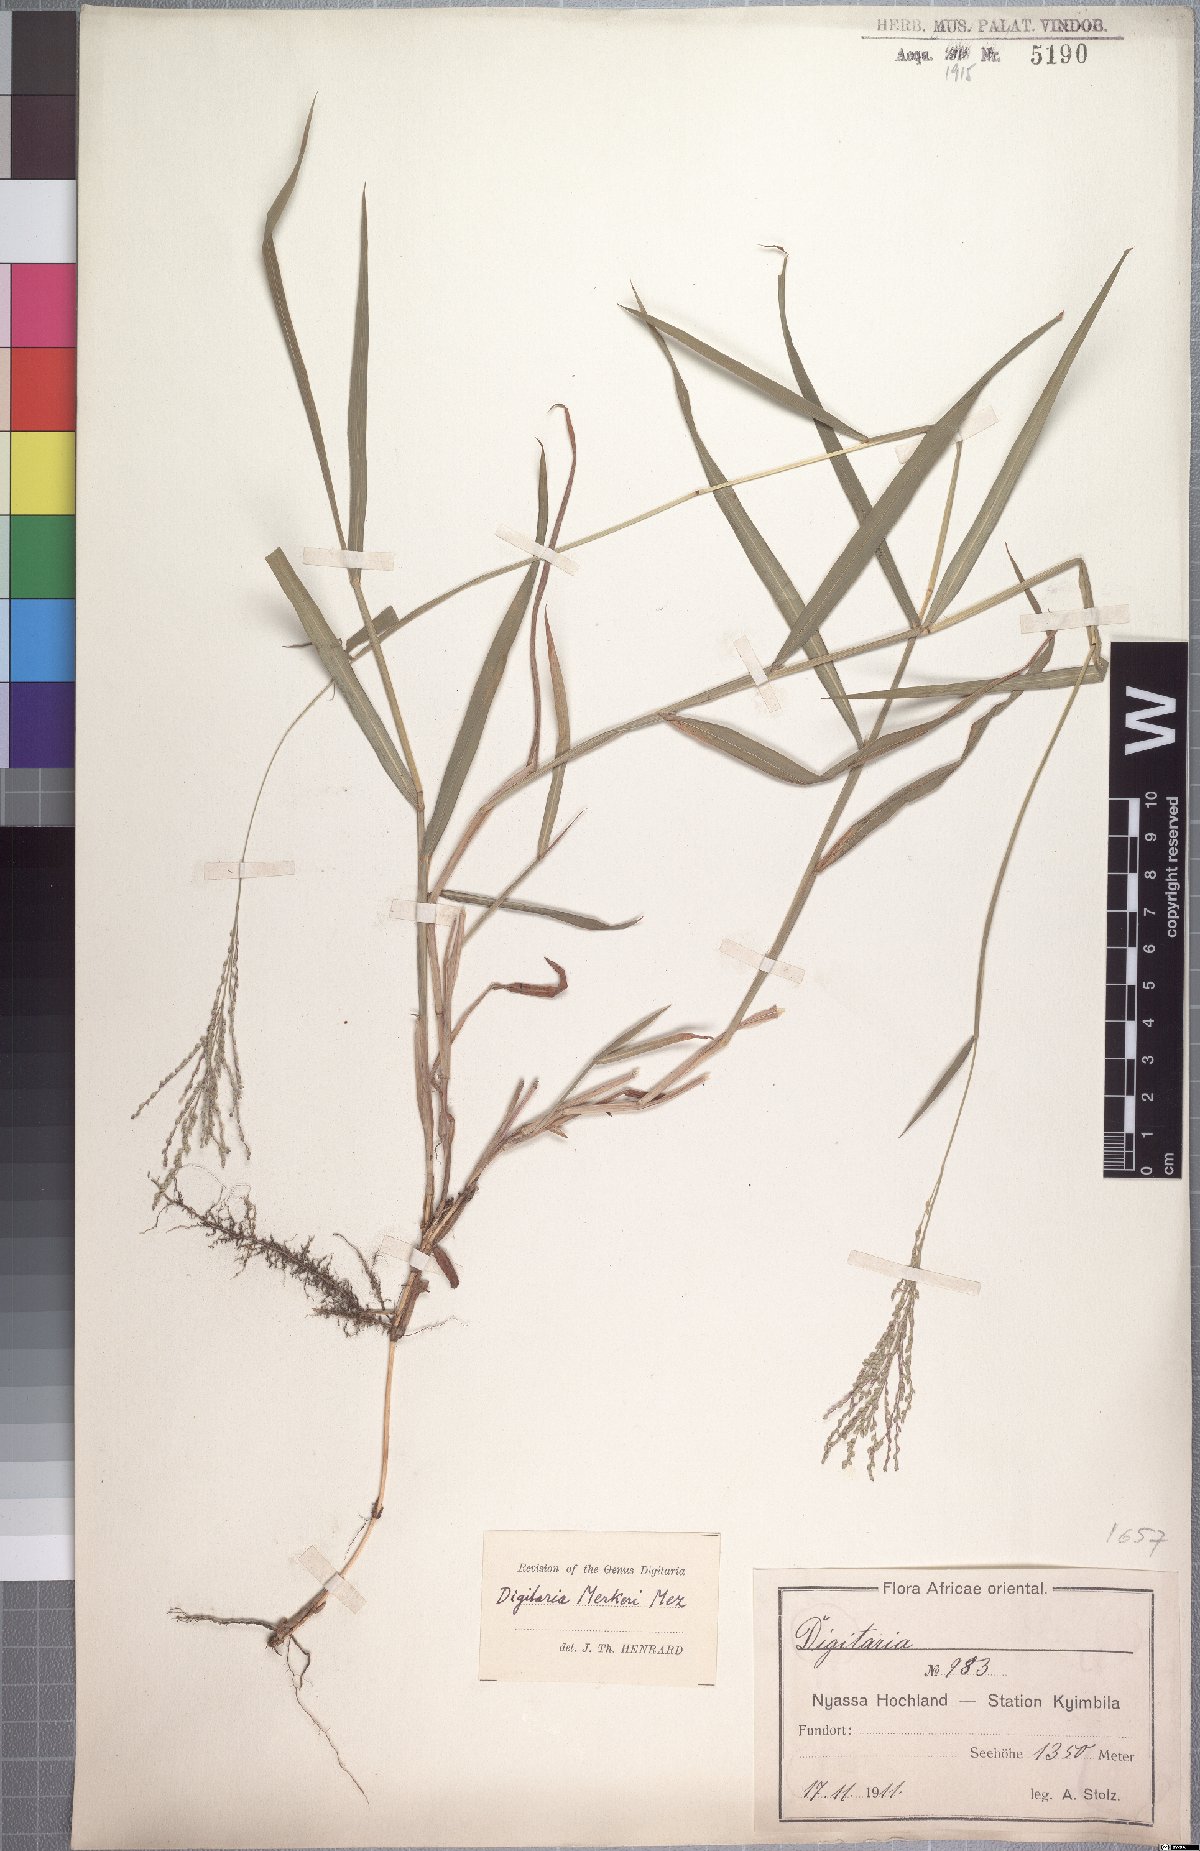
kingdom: Plantae
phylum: Tracheophyta
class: Liliopsida
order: Poales
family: Poaceae
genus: Digitaria
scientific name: Digitaria abyssinica
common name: African couchgrass
